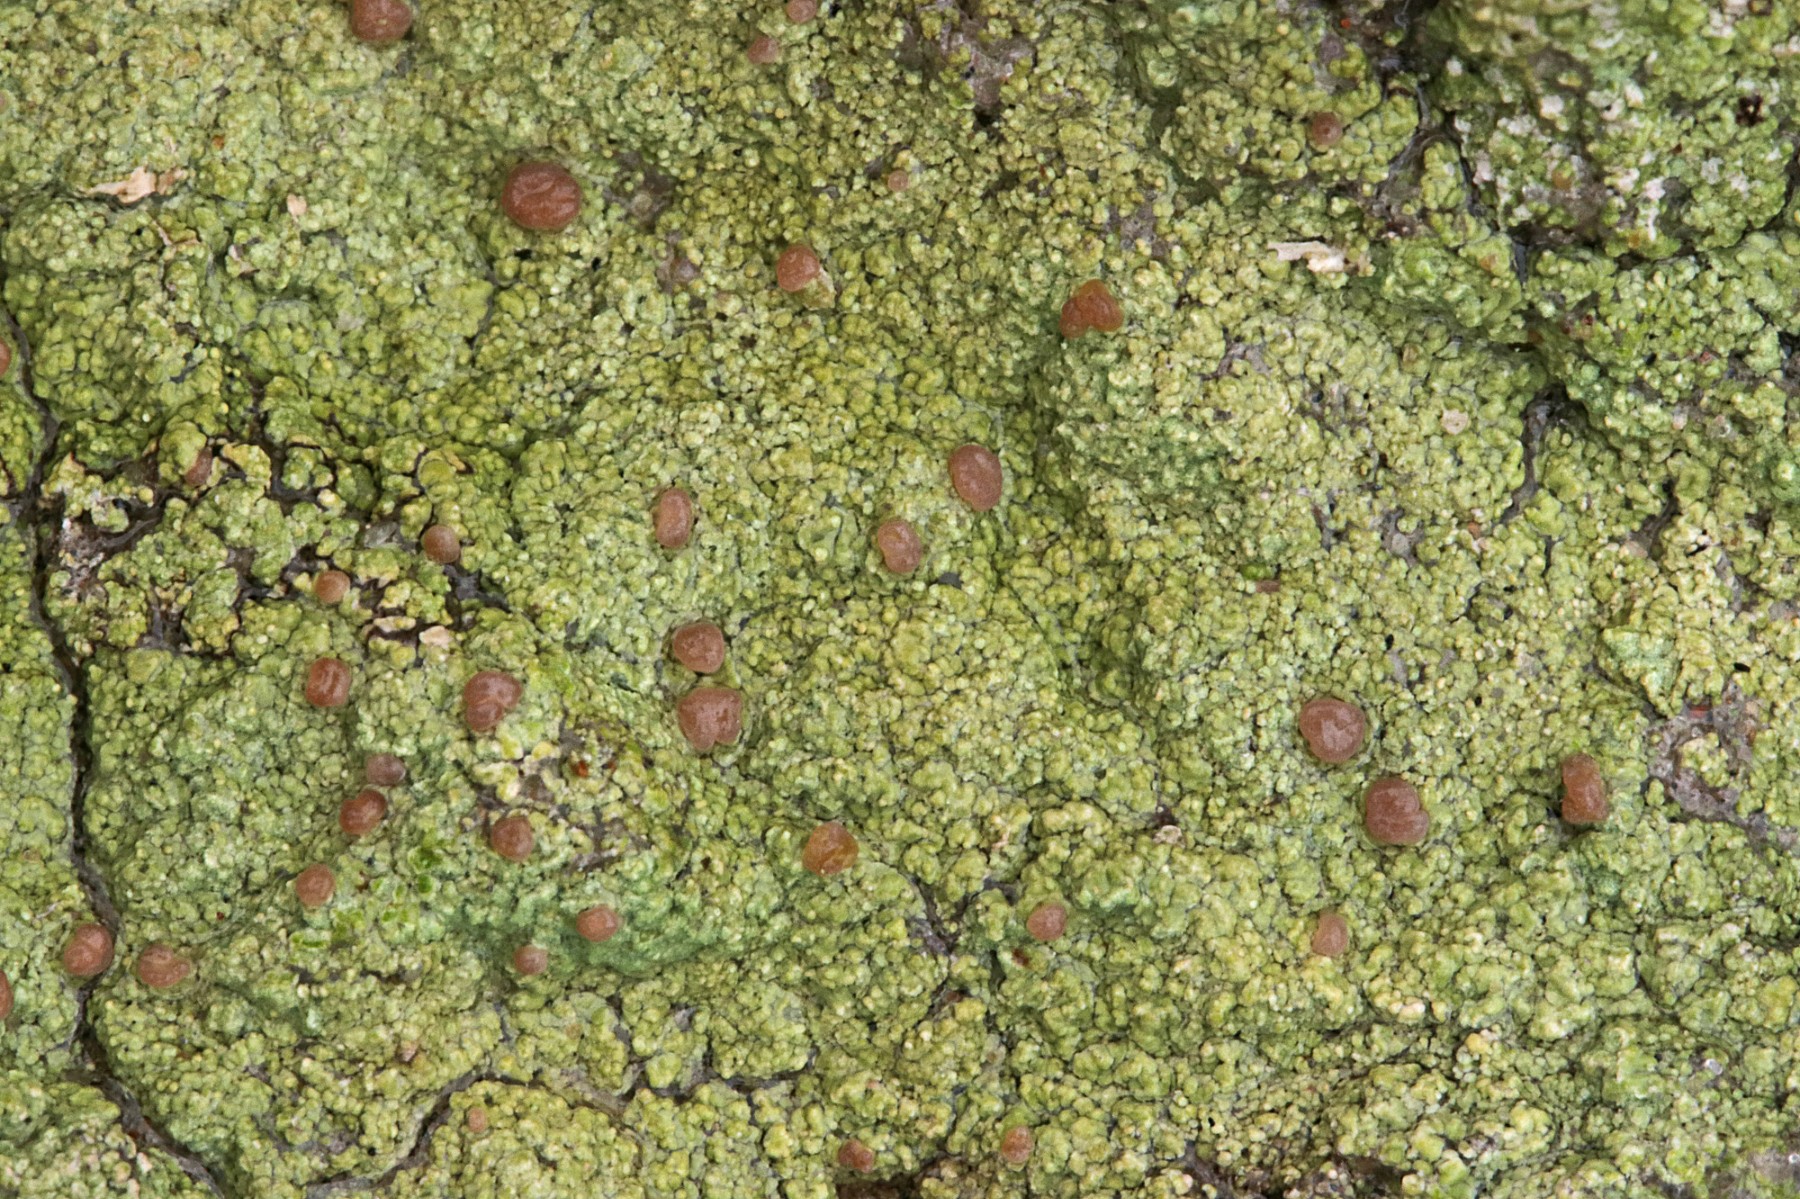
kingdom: Fungi
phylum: Ascomycota
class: Lecanoromycetes
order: Baeomycetales
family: Baeomycetaceae
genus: Baeomyces
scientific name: Baeomyces rufus
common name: rødbrun svampelav
